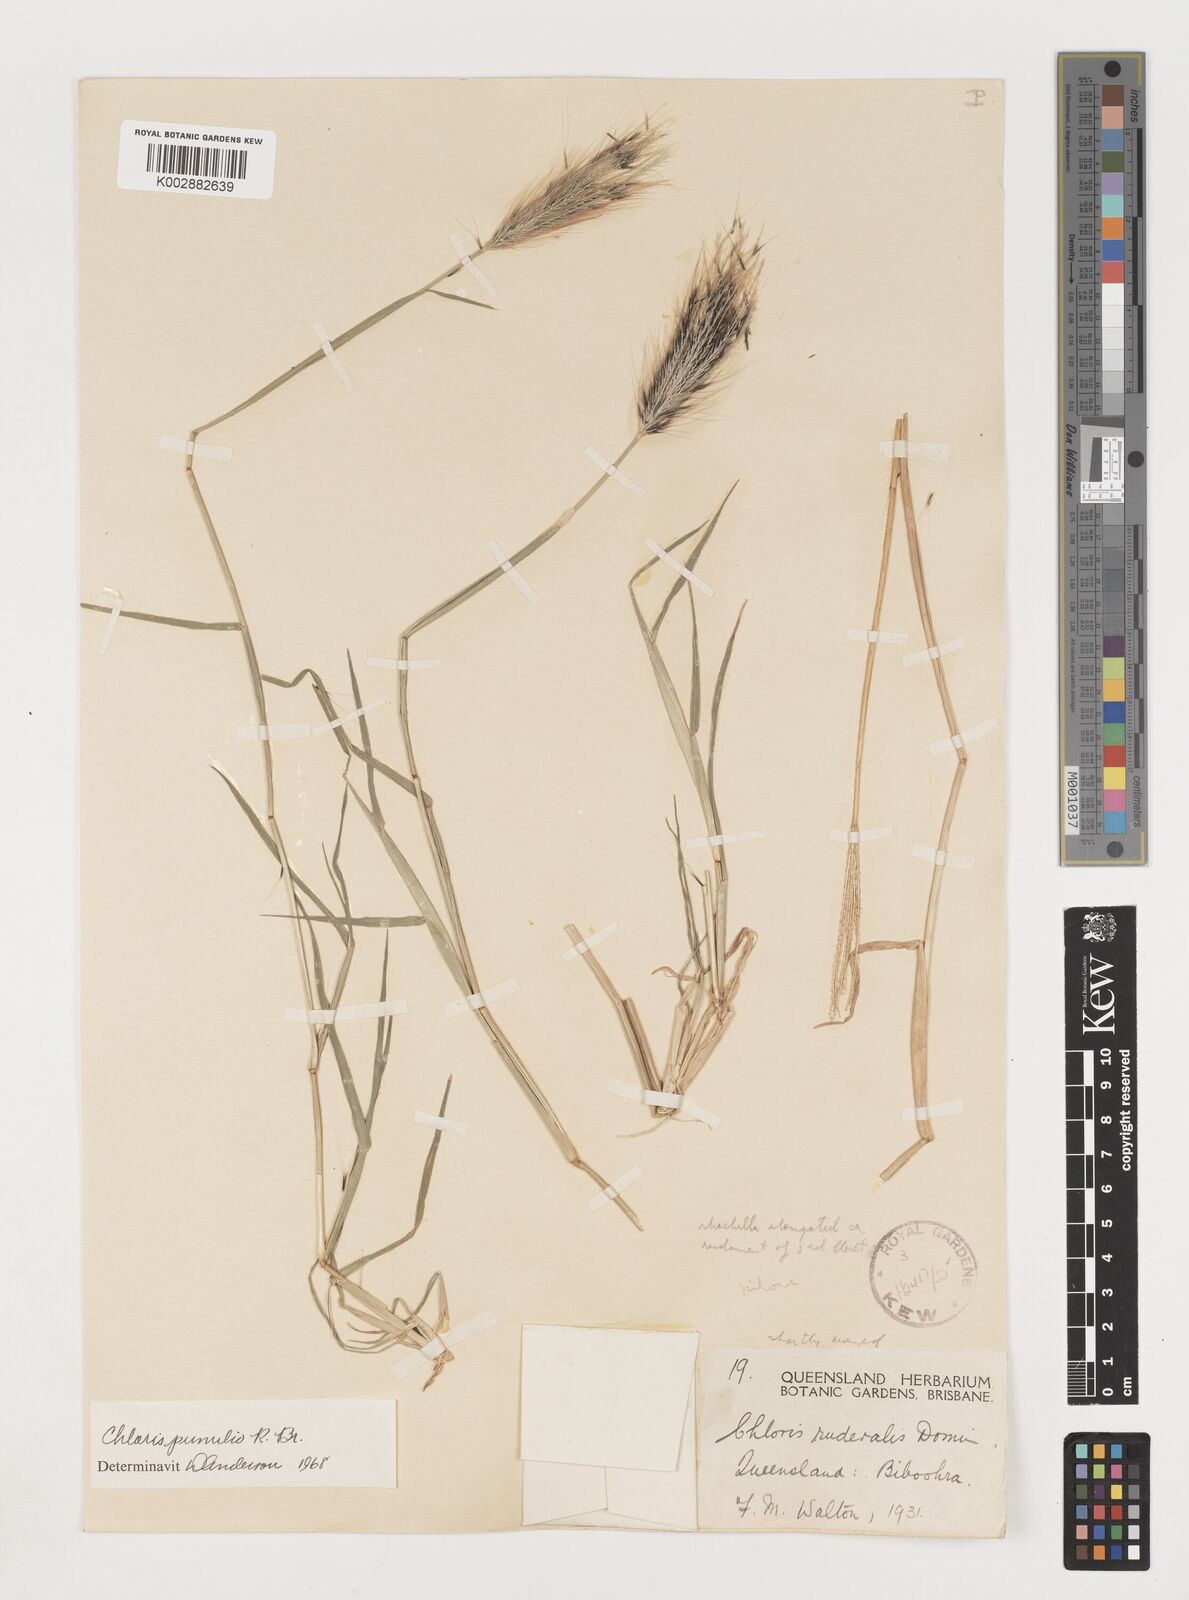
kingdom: Plantae
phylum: Tracheophyta
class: Liliopsida
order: Poales
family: Poaceae
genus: Chloris
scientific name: Chloris pumilio
